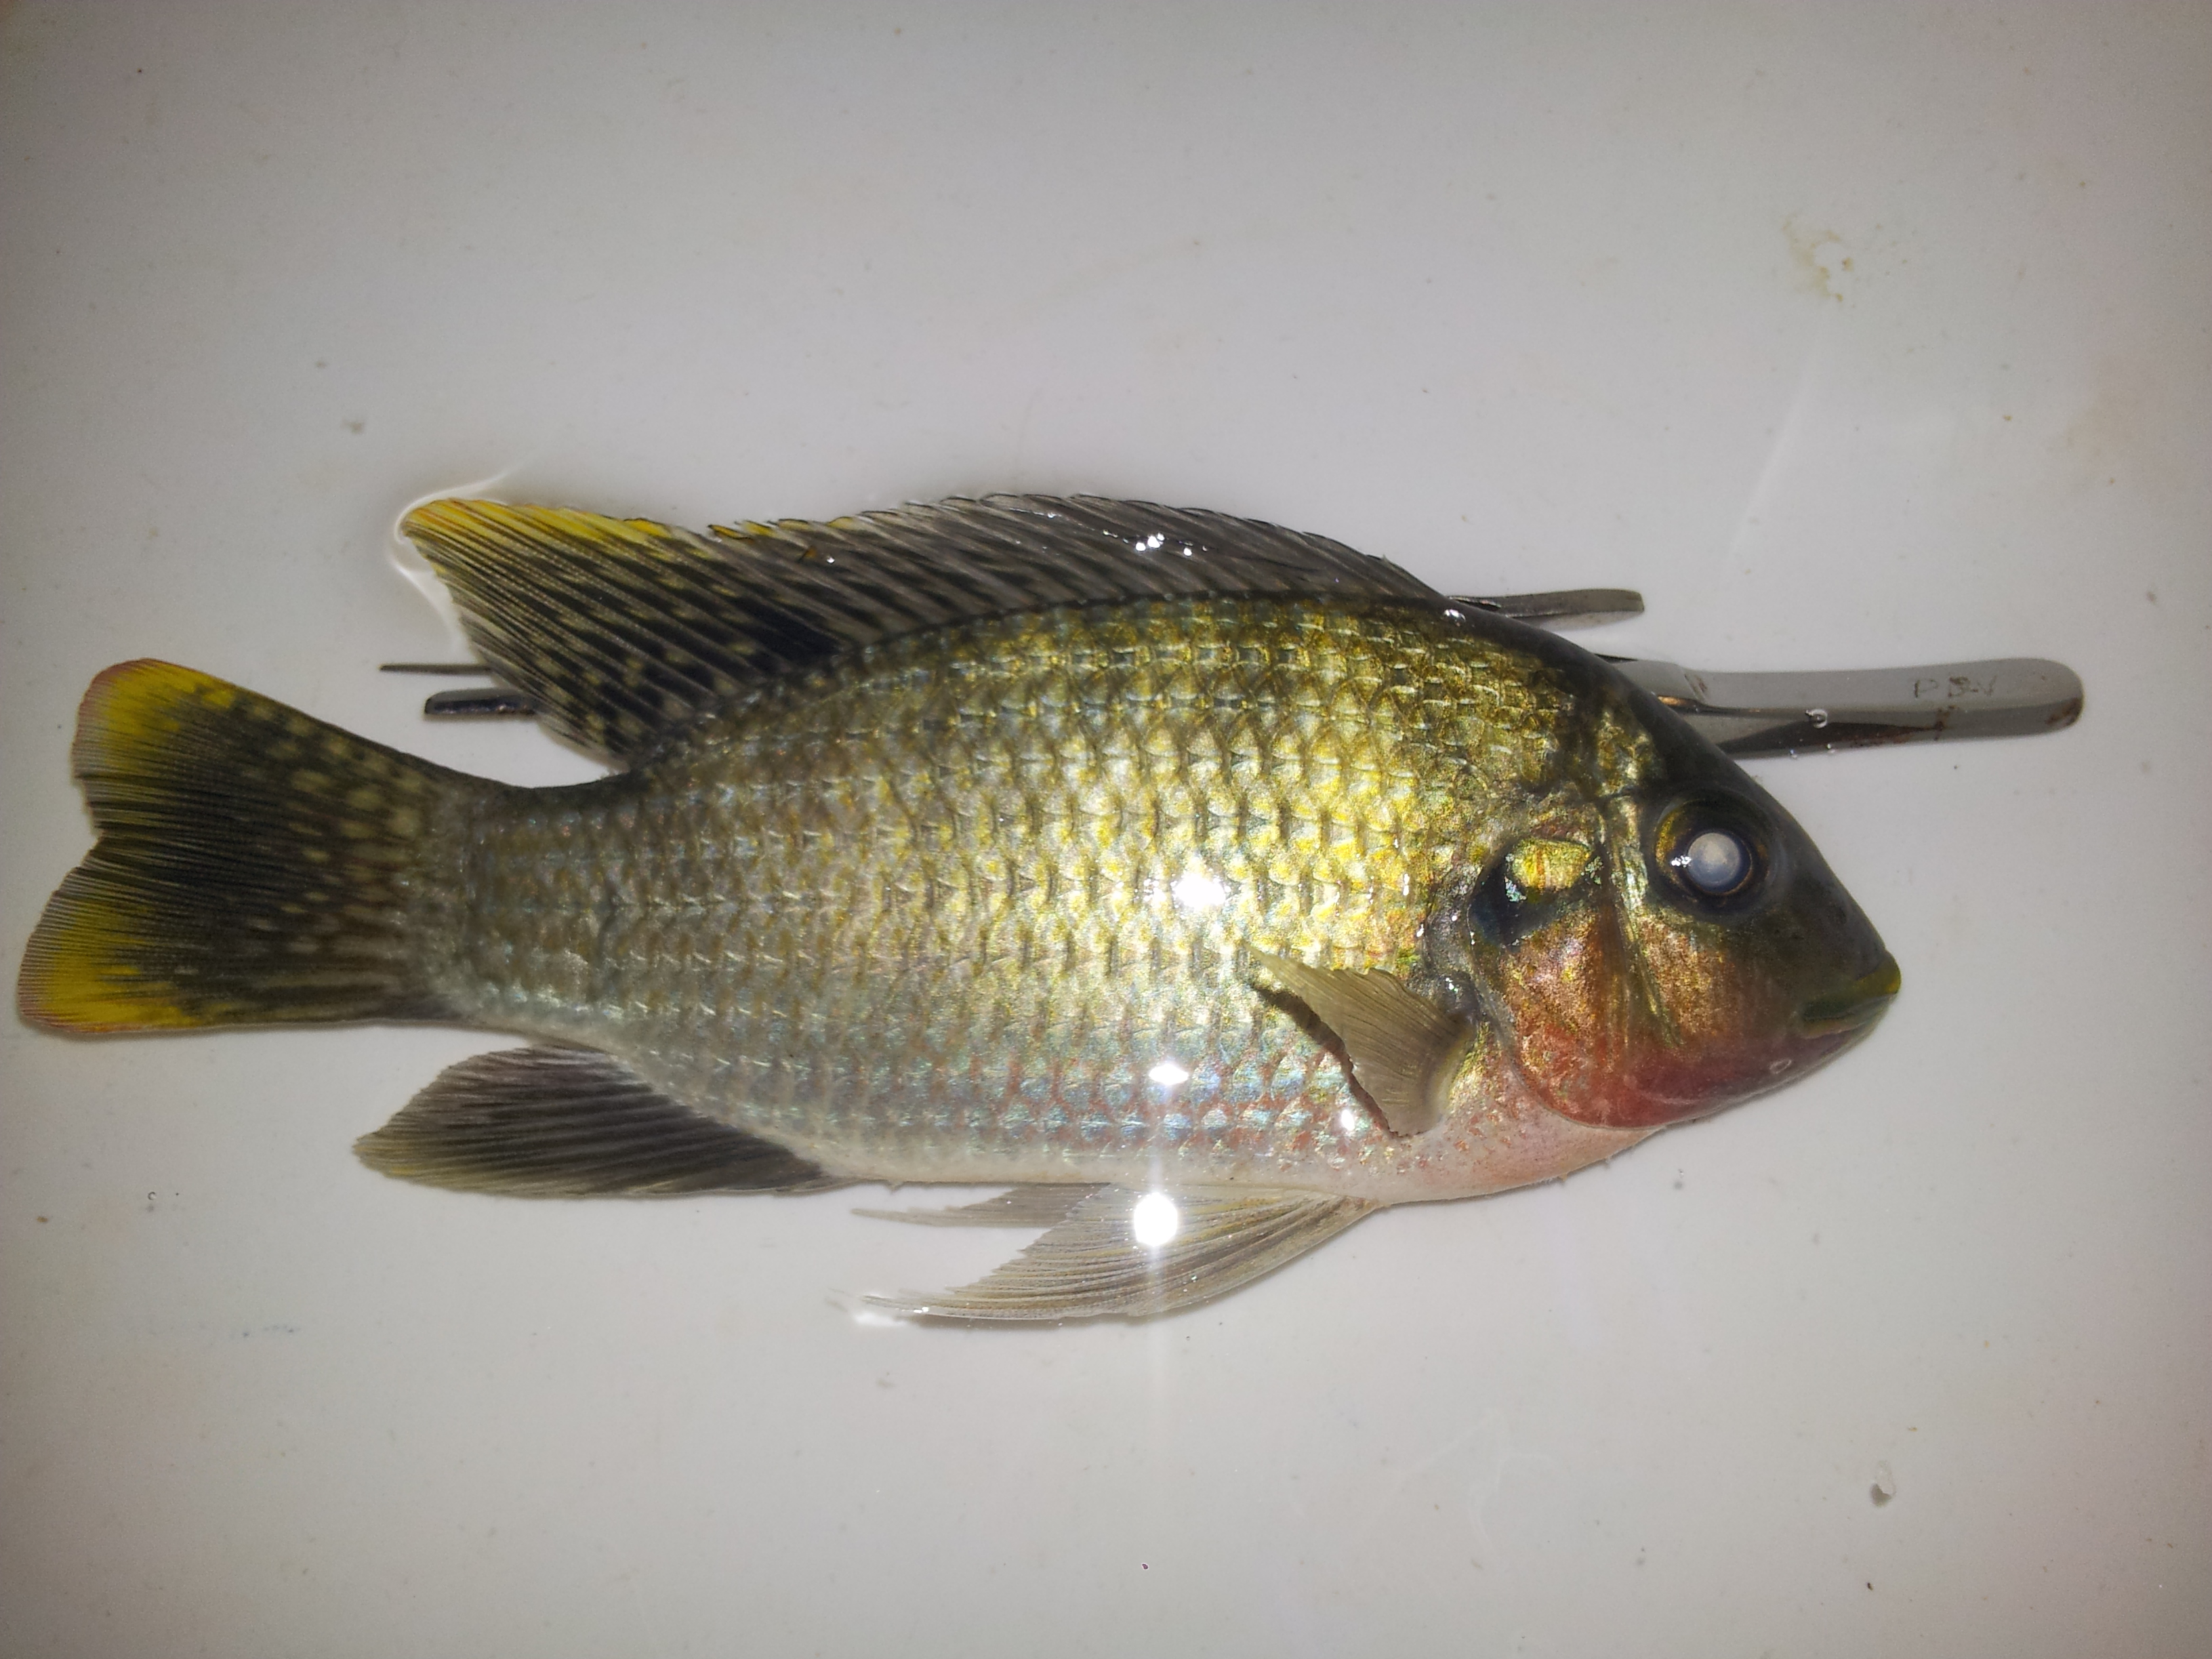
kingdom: Animalia
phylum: Chordata
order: Perciformes
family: Cichlidae
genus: Coptodon
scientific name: Coptodon louka
